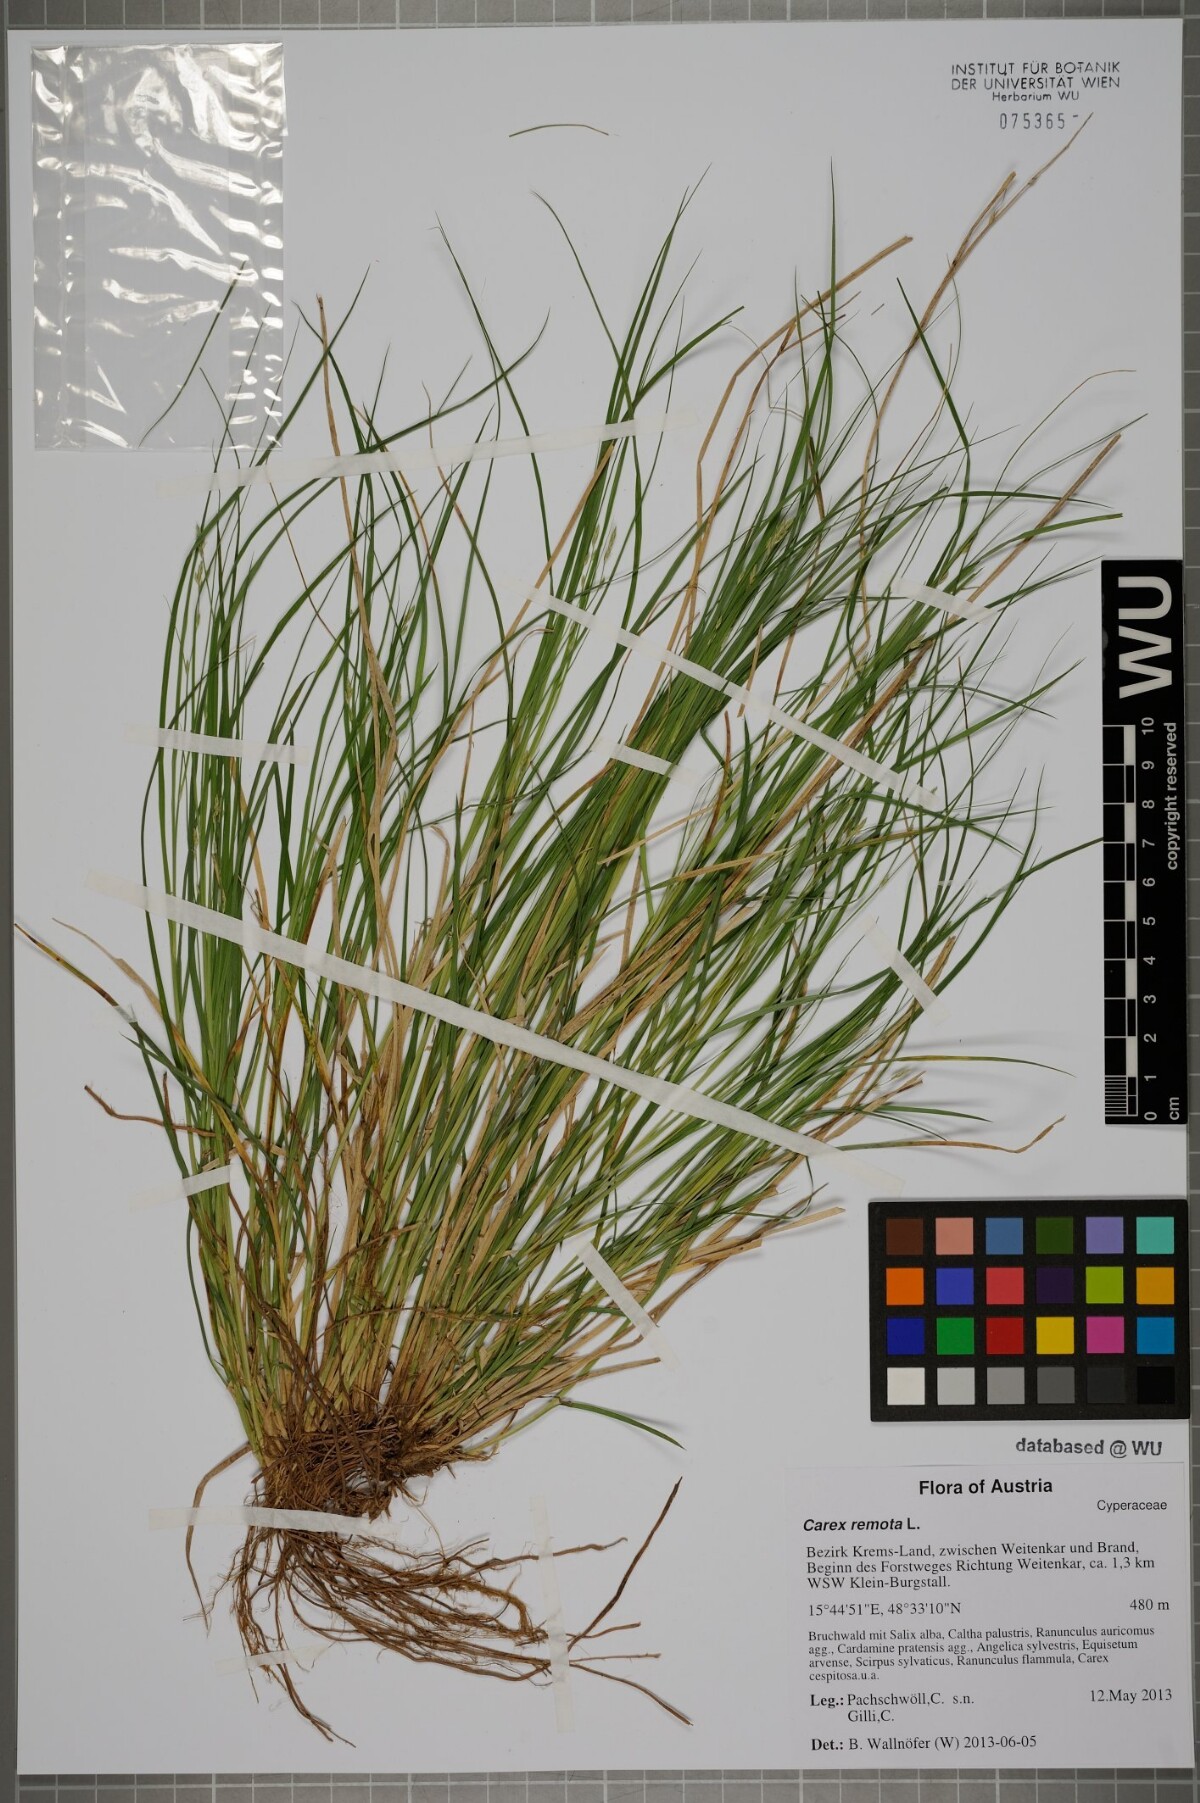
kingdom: Plantae
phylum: Tracheophyta
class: Liliopsida
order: Poales
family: Cyperaceae
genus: Carex
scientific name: Carex remota
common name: Remote sedge
